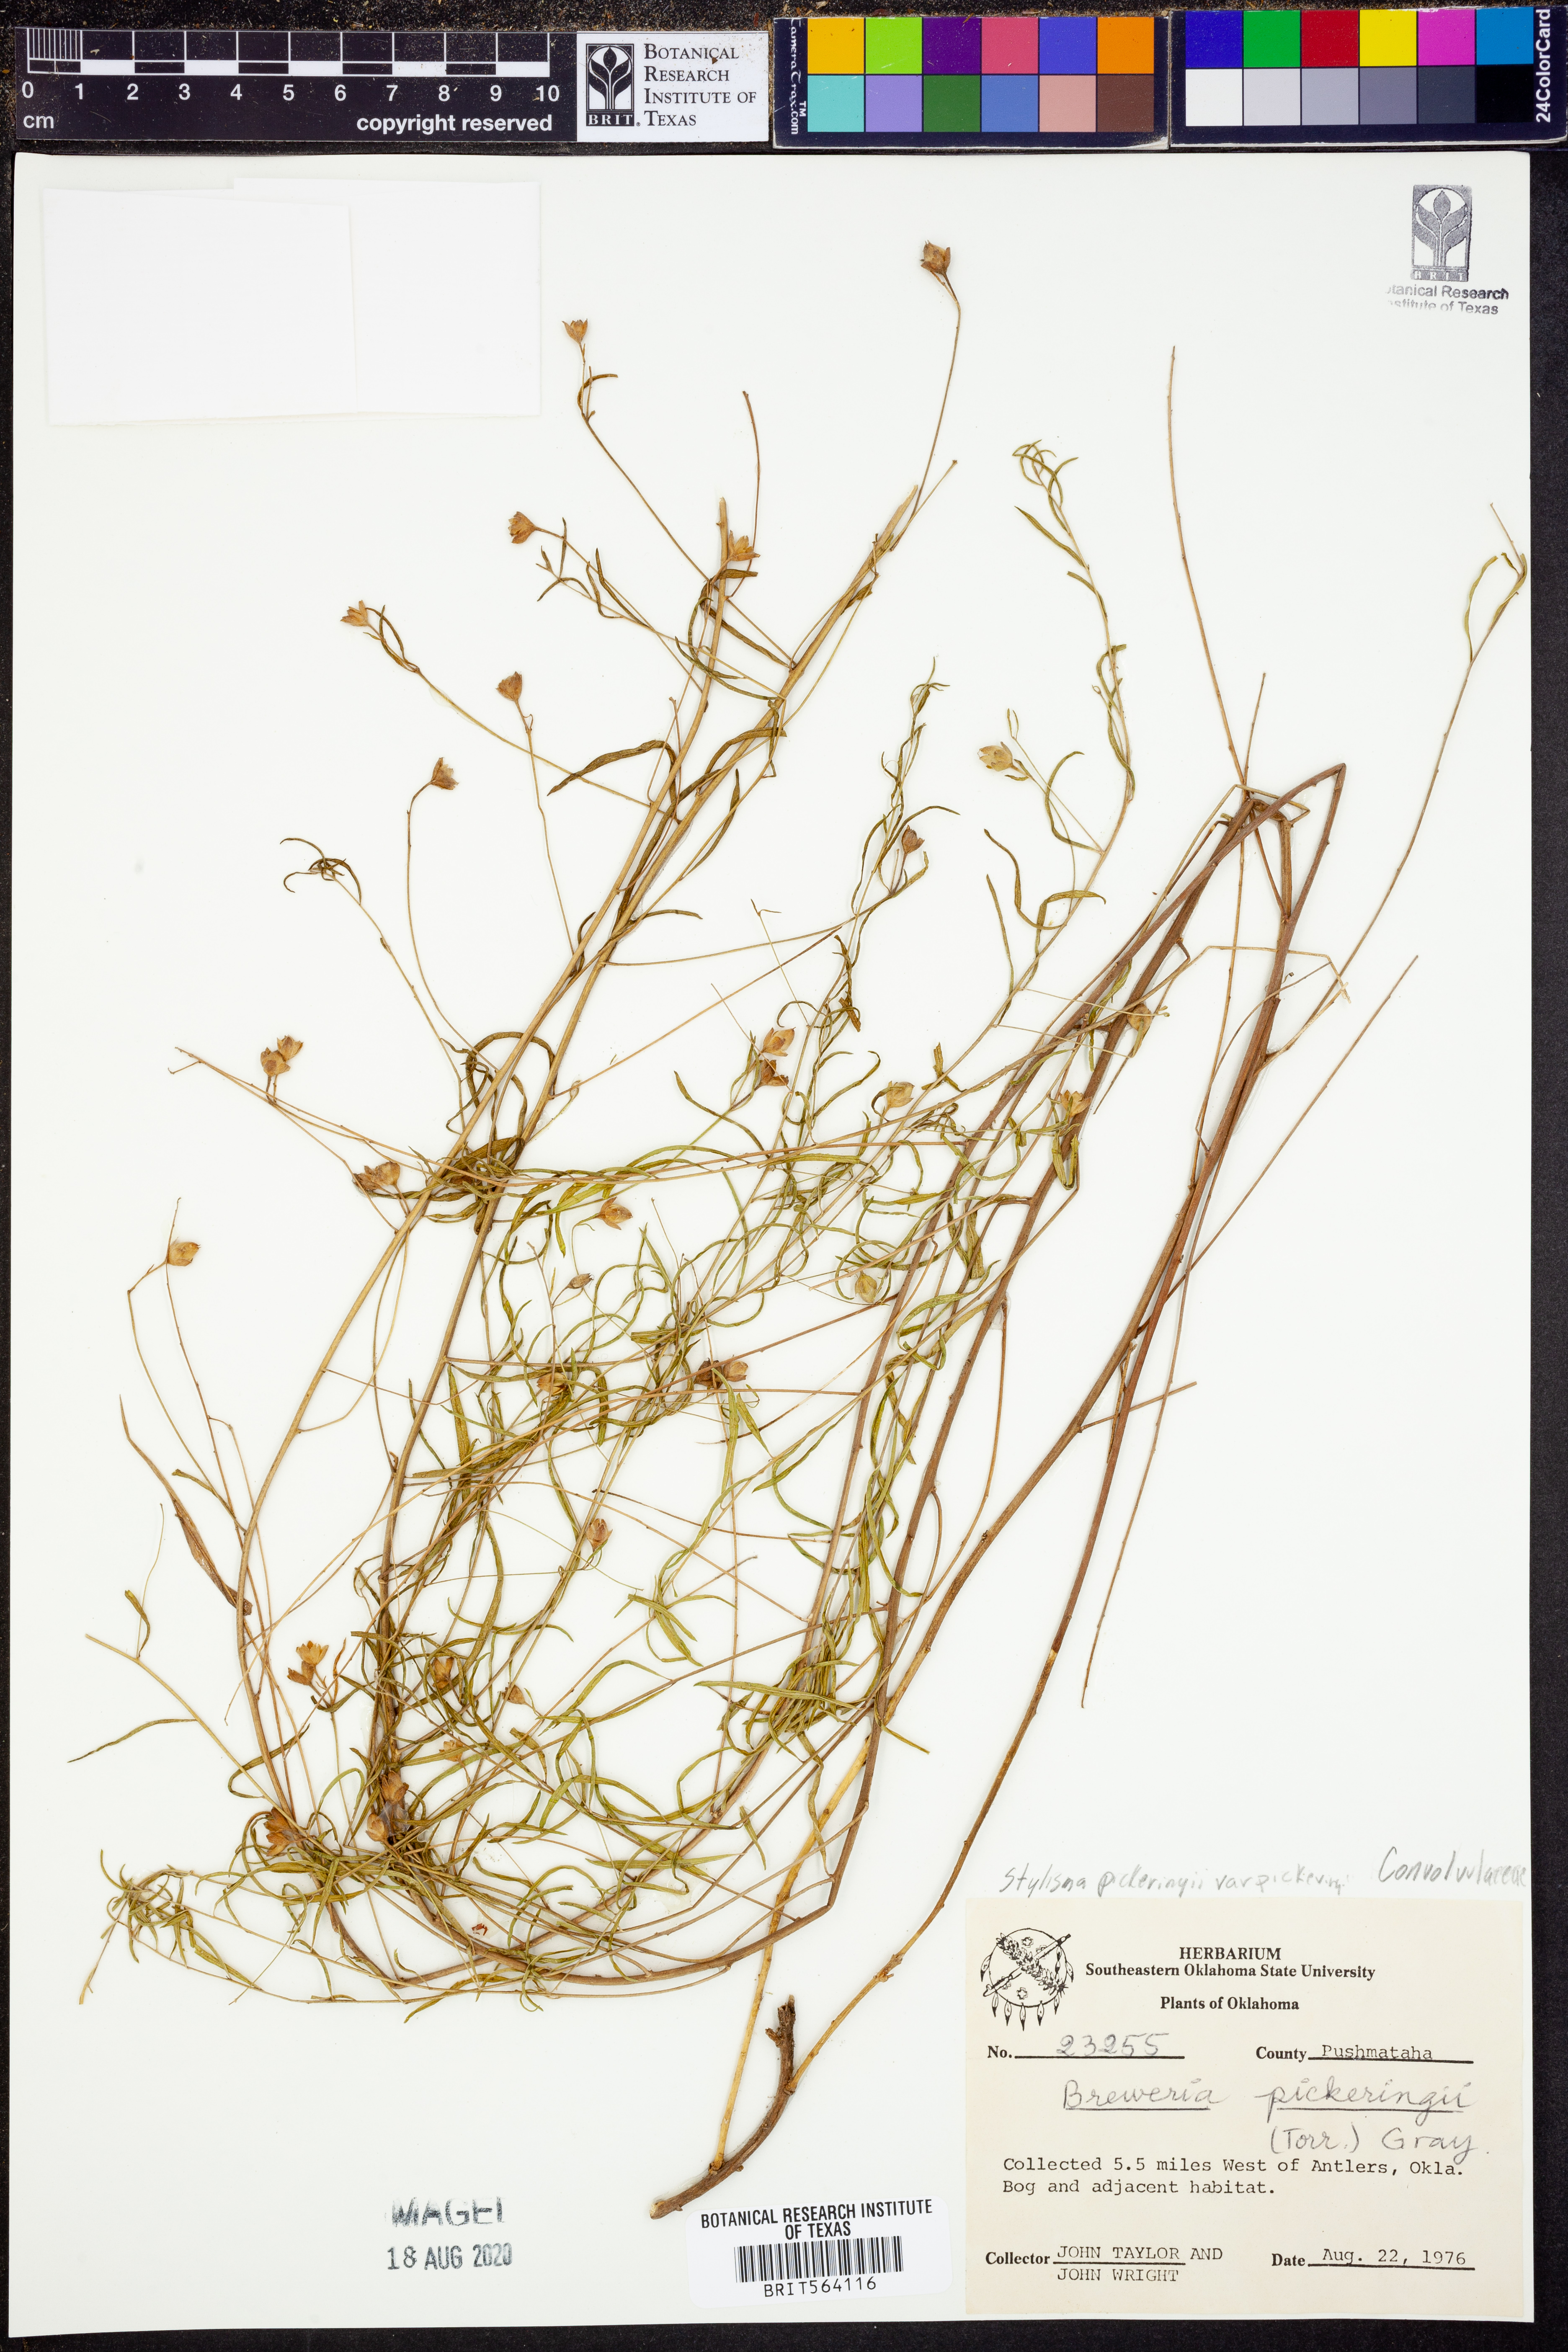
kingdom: Plantae
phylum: Tracheophyta
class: Magnoliopsida
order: Solanales
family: Convolvulaceae
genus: Stylisma
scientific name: Stylisma pickeringii
